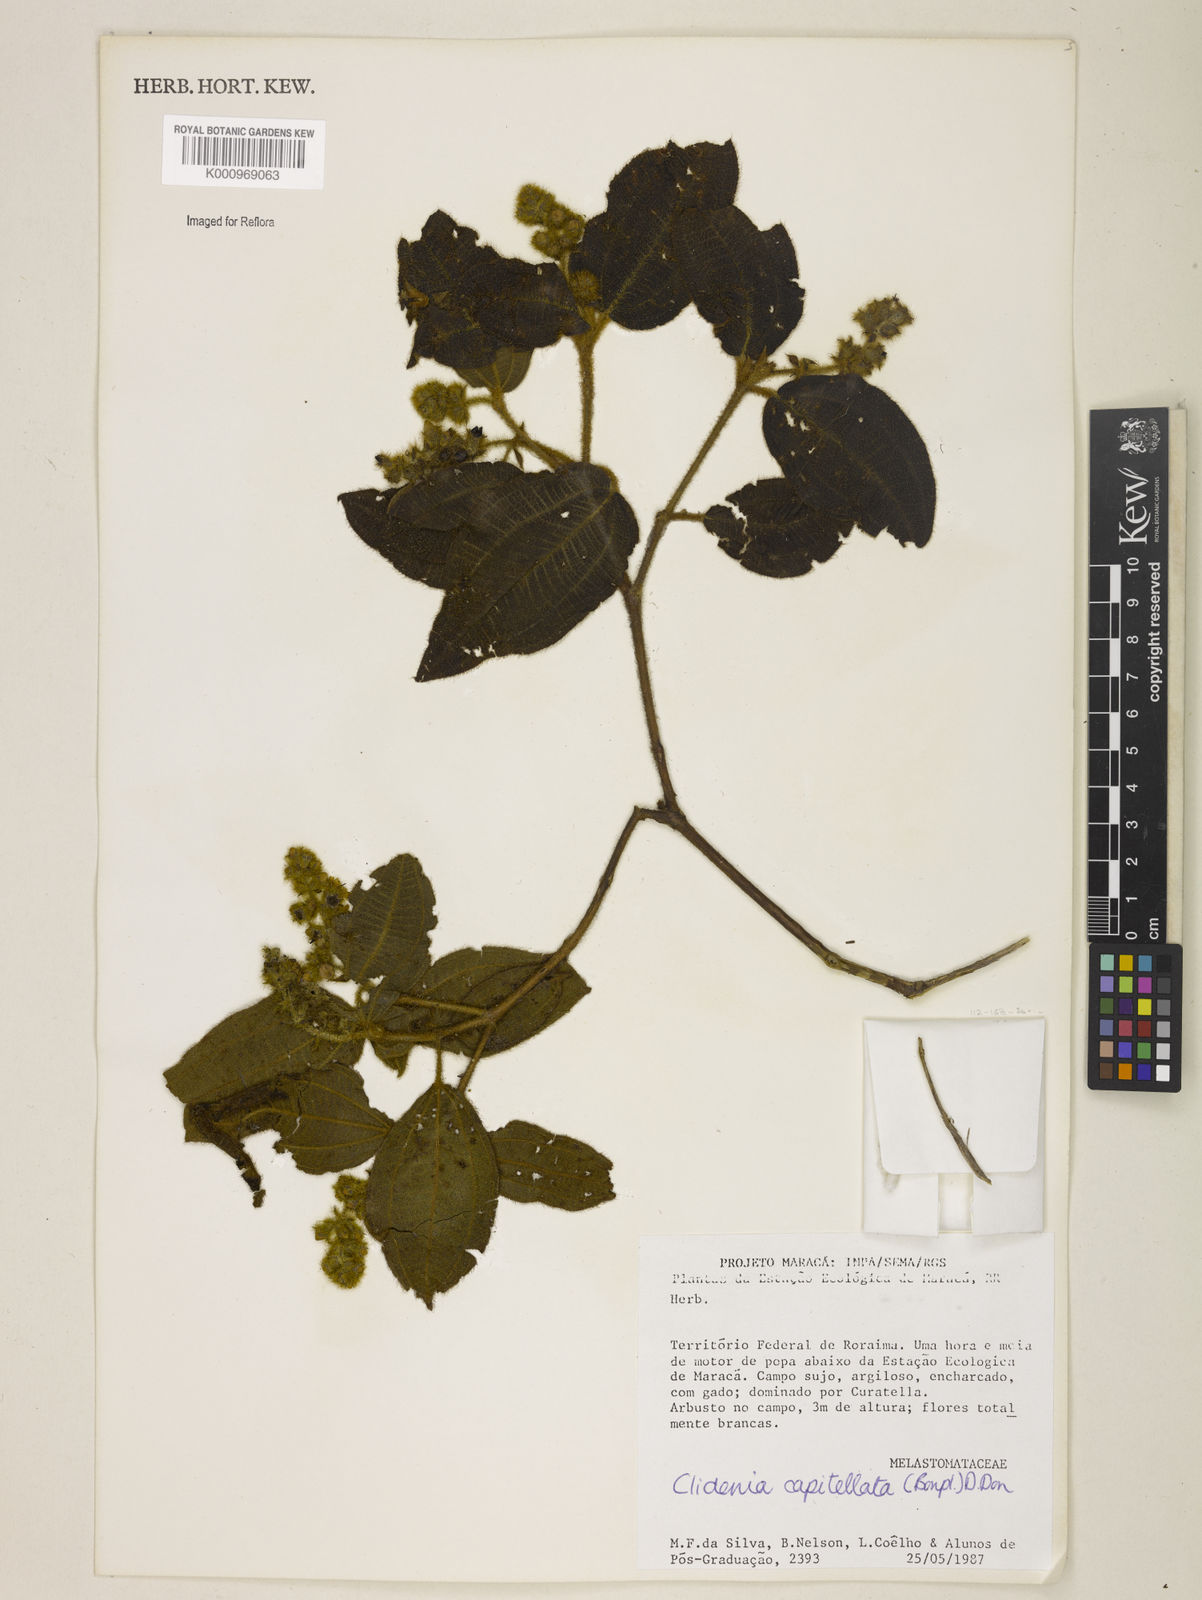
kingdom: Plantae
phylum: Tracheophyta
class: Magnoliopsida
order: Myrtales
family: Melastomataceae
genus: Miconia
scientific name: Miconia dependens
